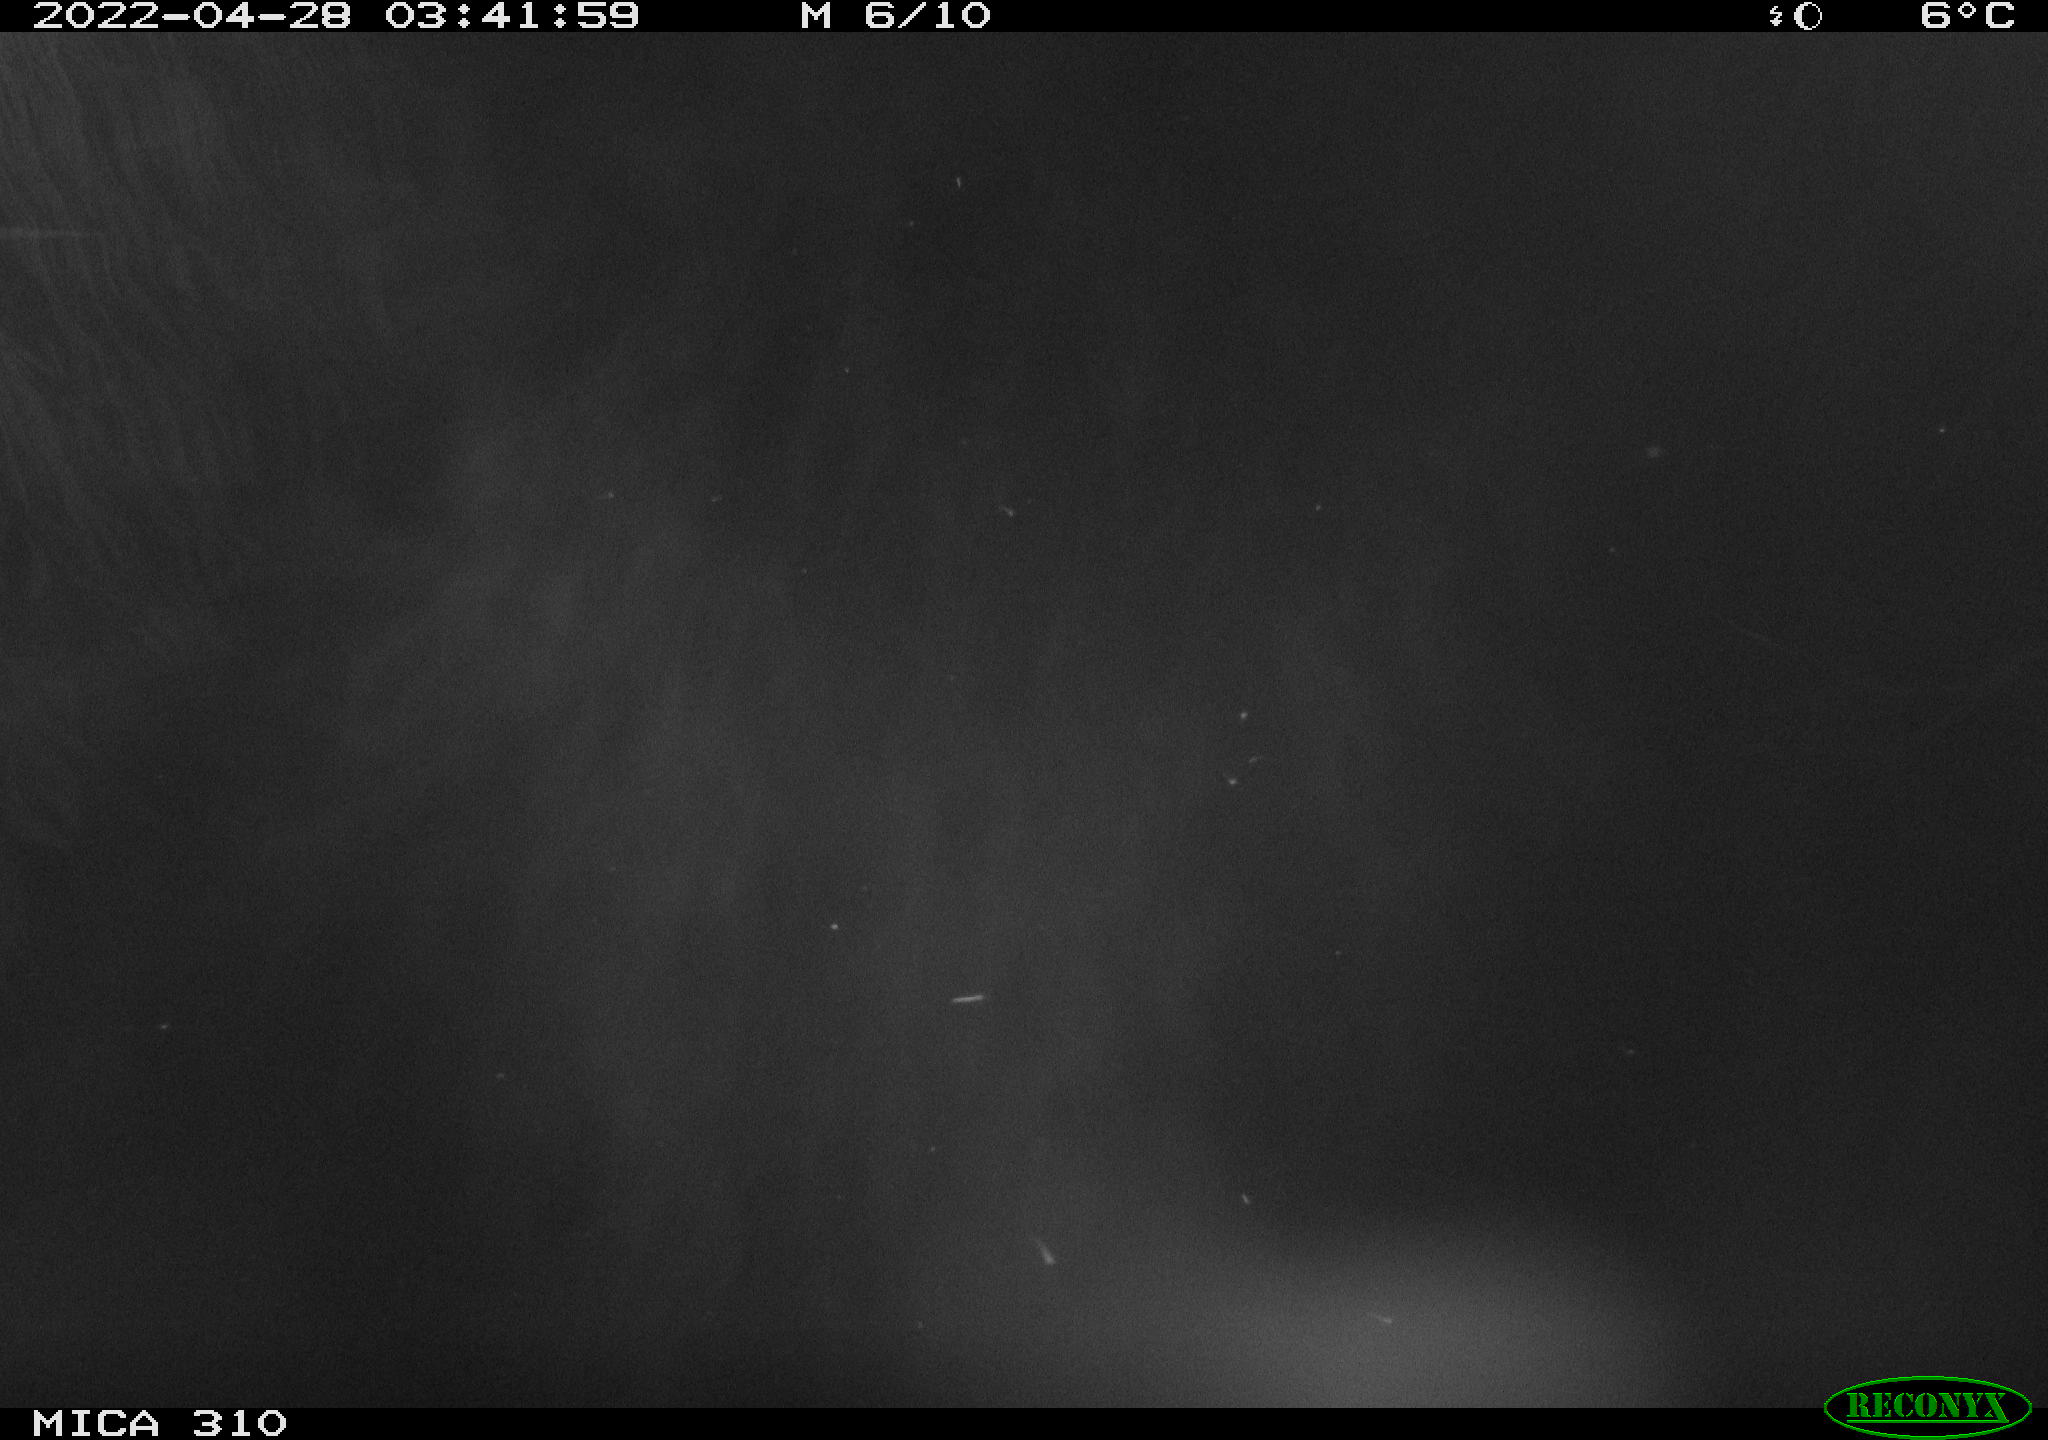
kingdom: Animalia
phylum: Chordata
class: Aves
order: Anseriformes
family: Anatidae
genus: Anas
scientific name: Anas platyrhynchos
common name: Mallard
